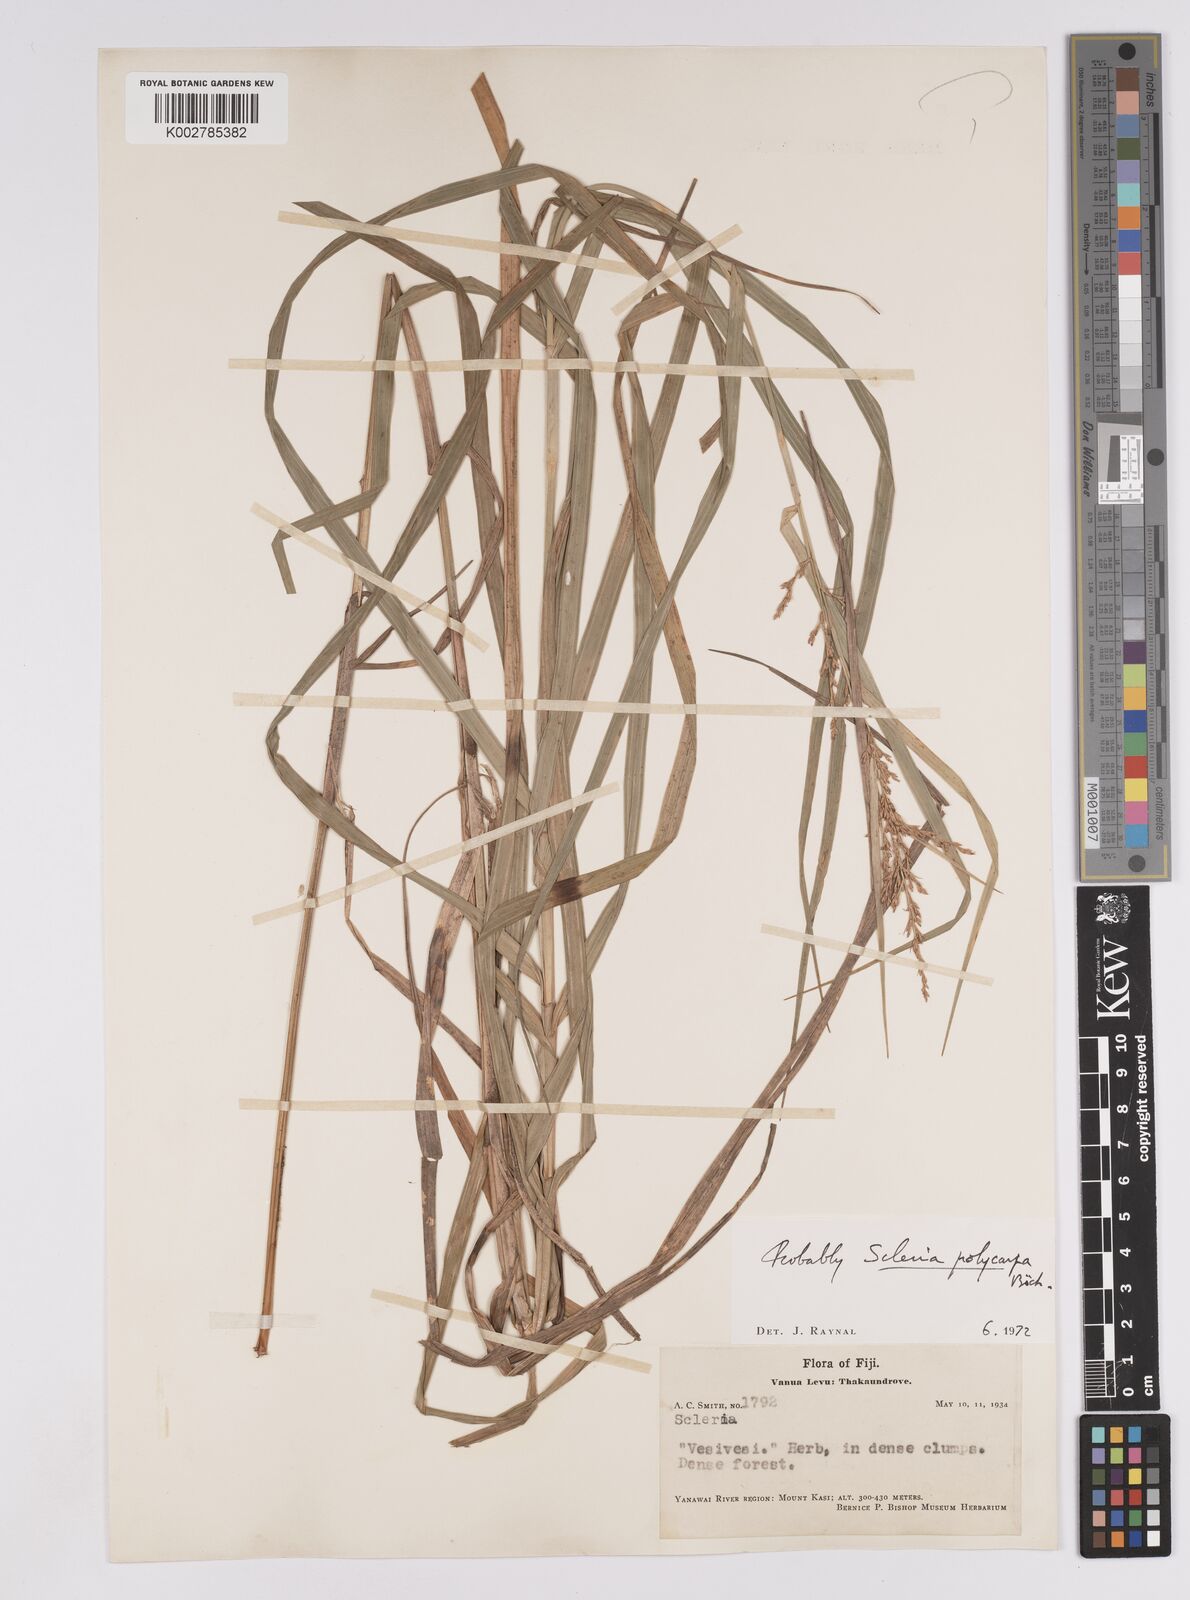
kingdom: Plantae
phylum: Tracheophyta
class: Liliopsida
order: Poales
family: Cyperaceae
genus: Scleria
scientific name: Scleria polycarpa
